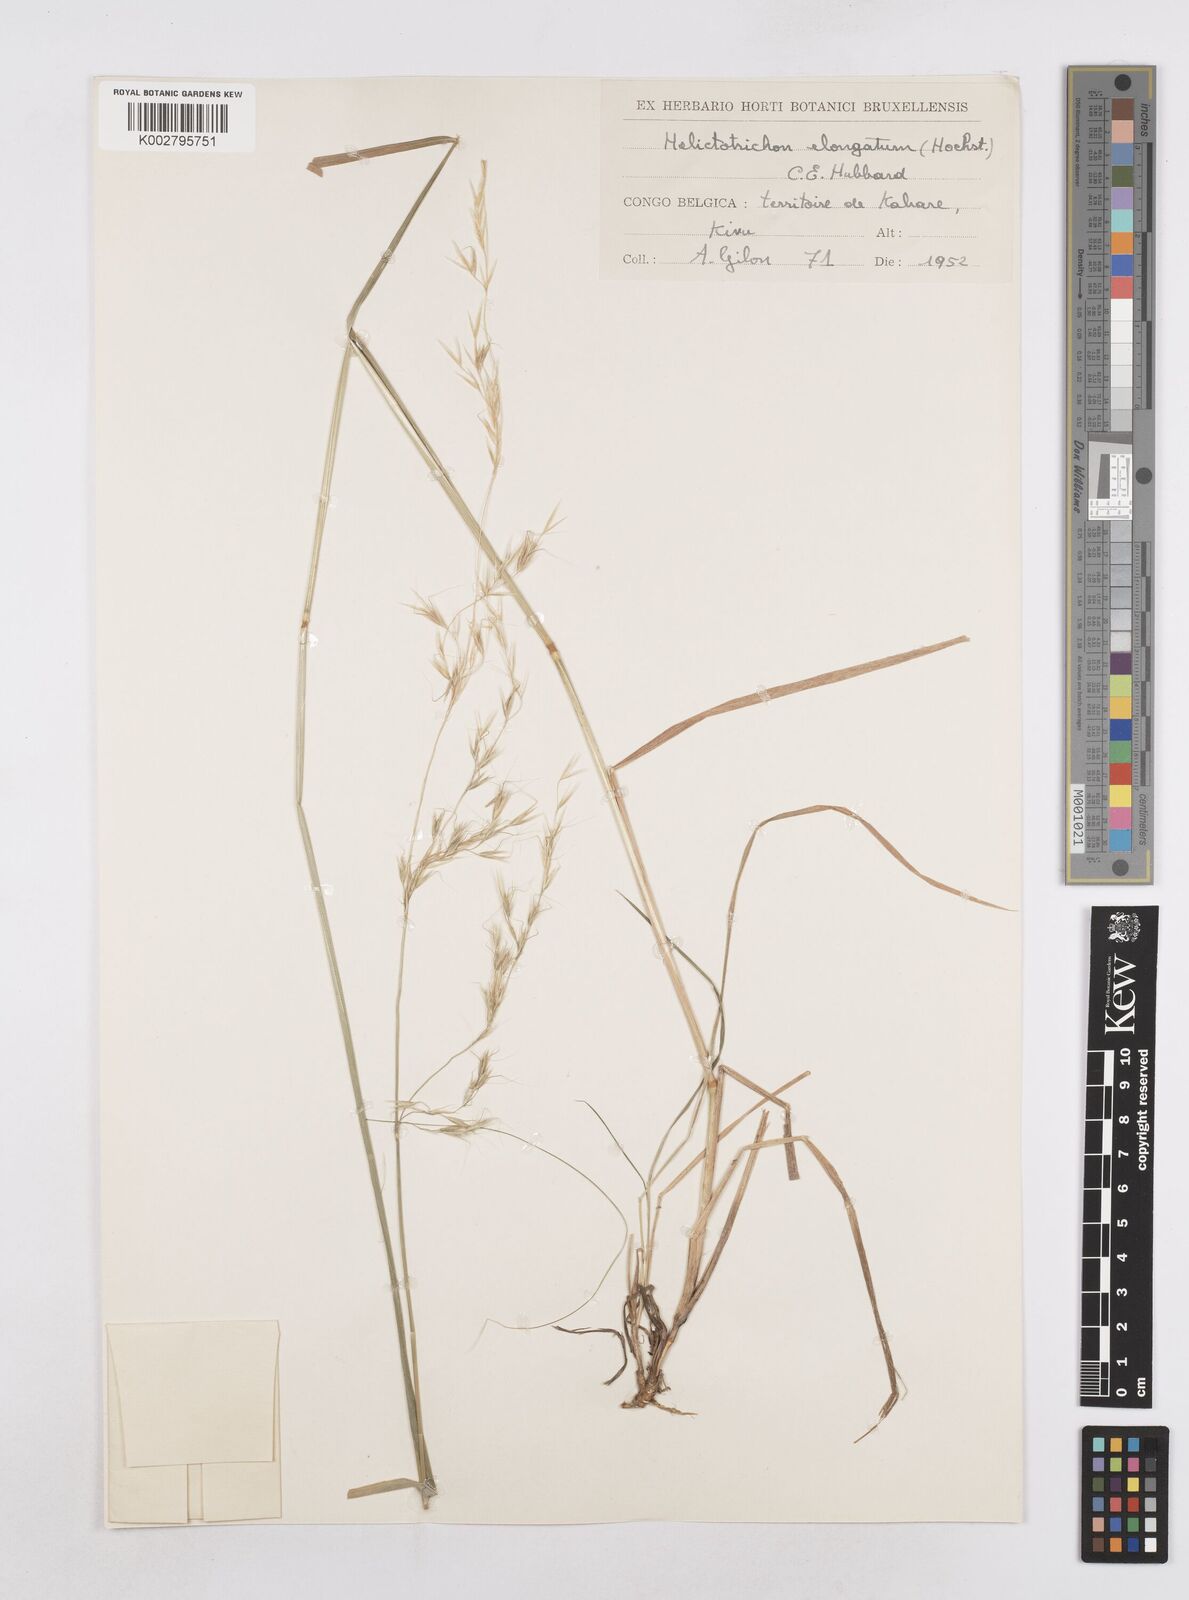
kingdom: Plantae
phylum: Tracheophyta
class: Liliopsida
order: Poales
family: Poaceae
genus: Trisetopsis
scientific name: Trisetopsis elongata
